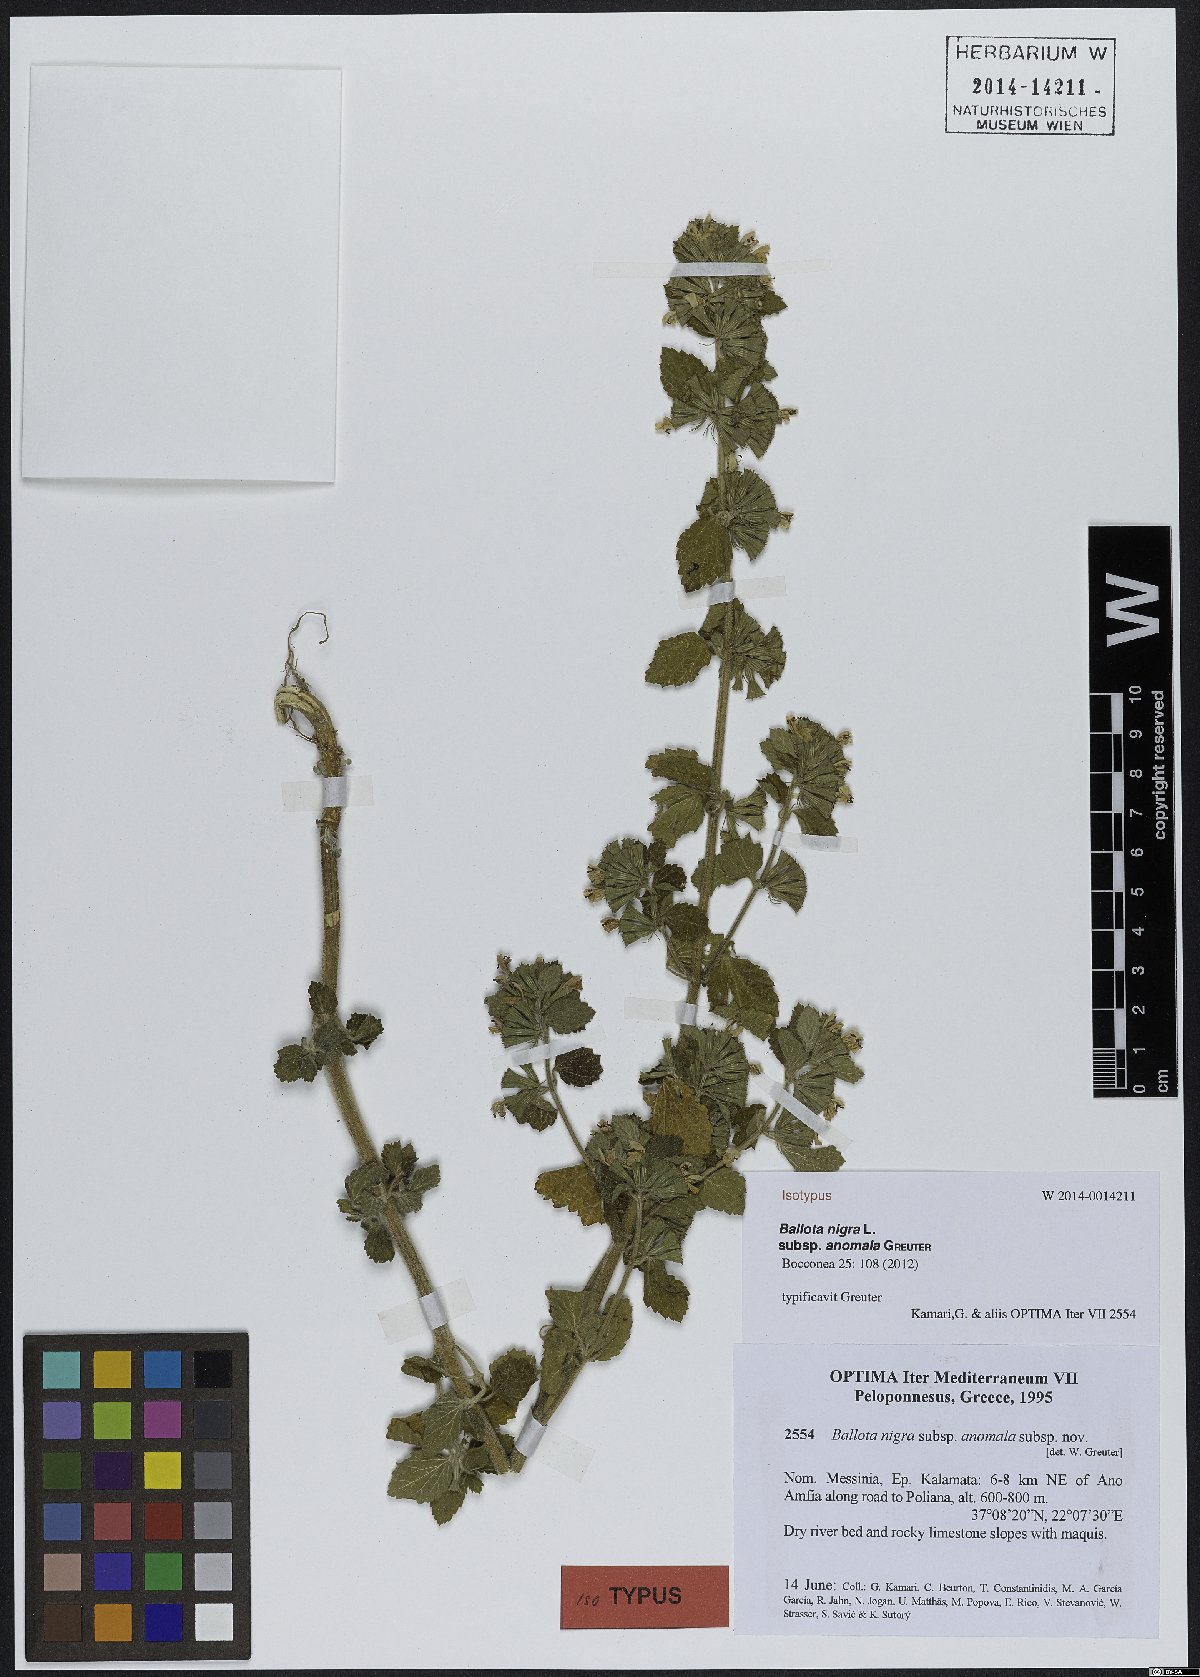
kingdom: Plantae
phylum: Tracheophyta
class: Magnoliopsida
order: Lamiales
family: Lamiaceae
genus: Ballota
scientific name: Ballota nigra
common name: Black horehound
